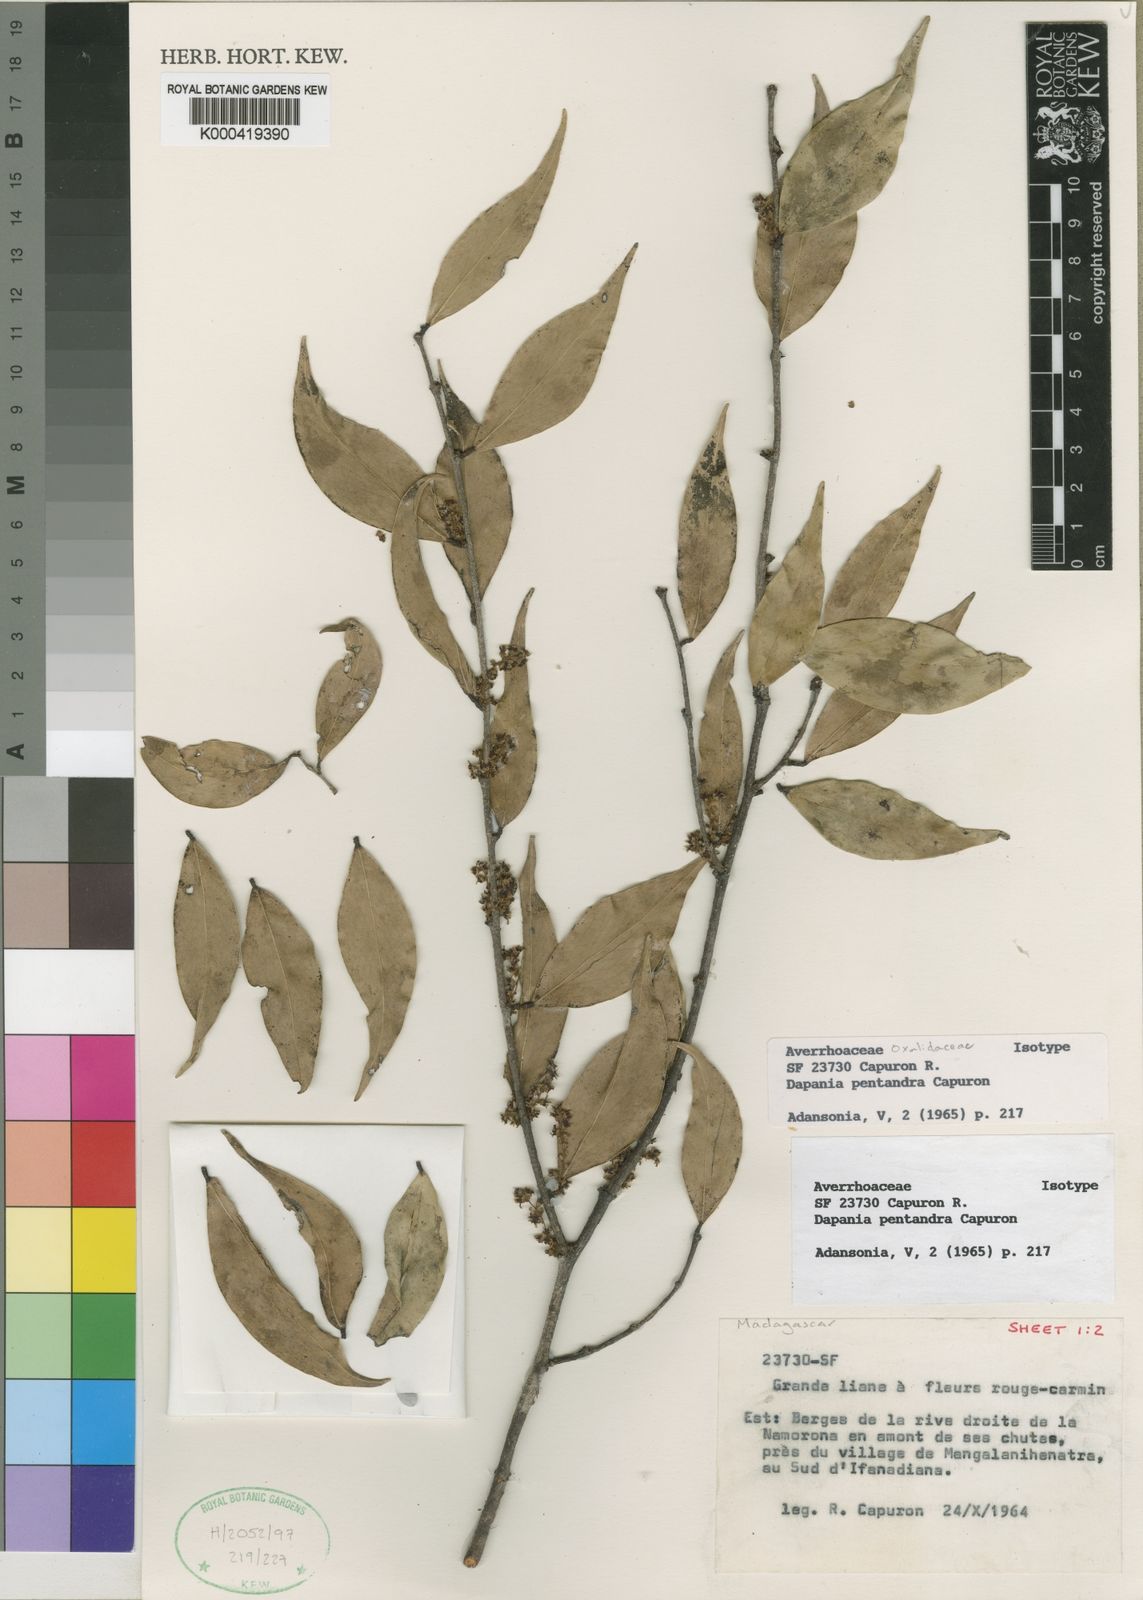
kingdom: Plantae
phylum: Tracheophyta
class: Magnoliopsida
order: Oxalidales
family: Oxalidaceae
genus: Dapania
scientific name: Dapania pentandra
